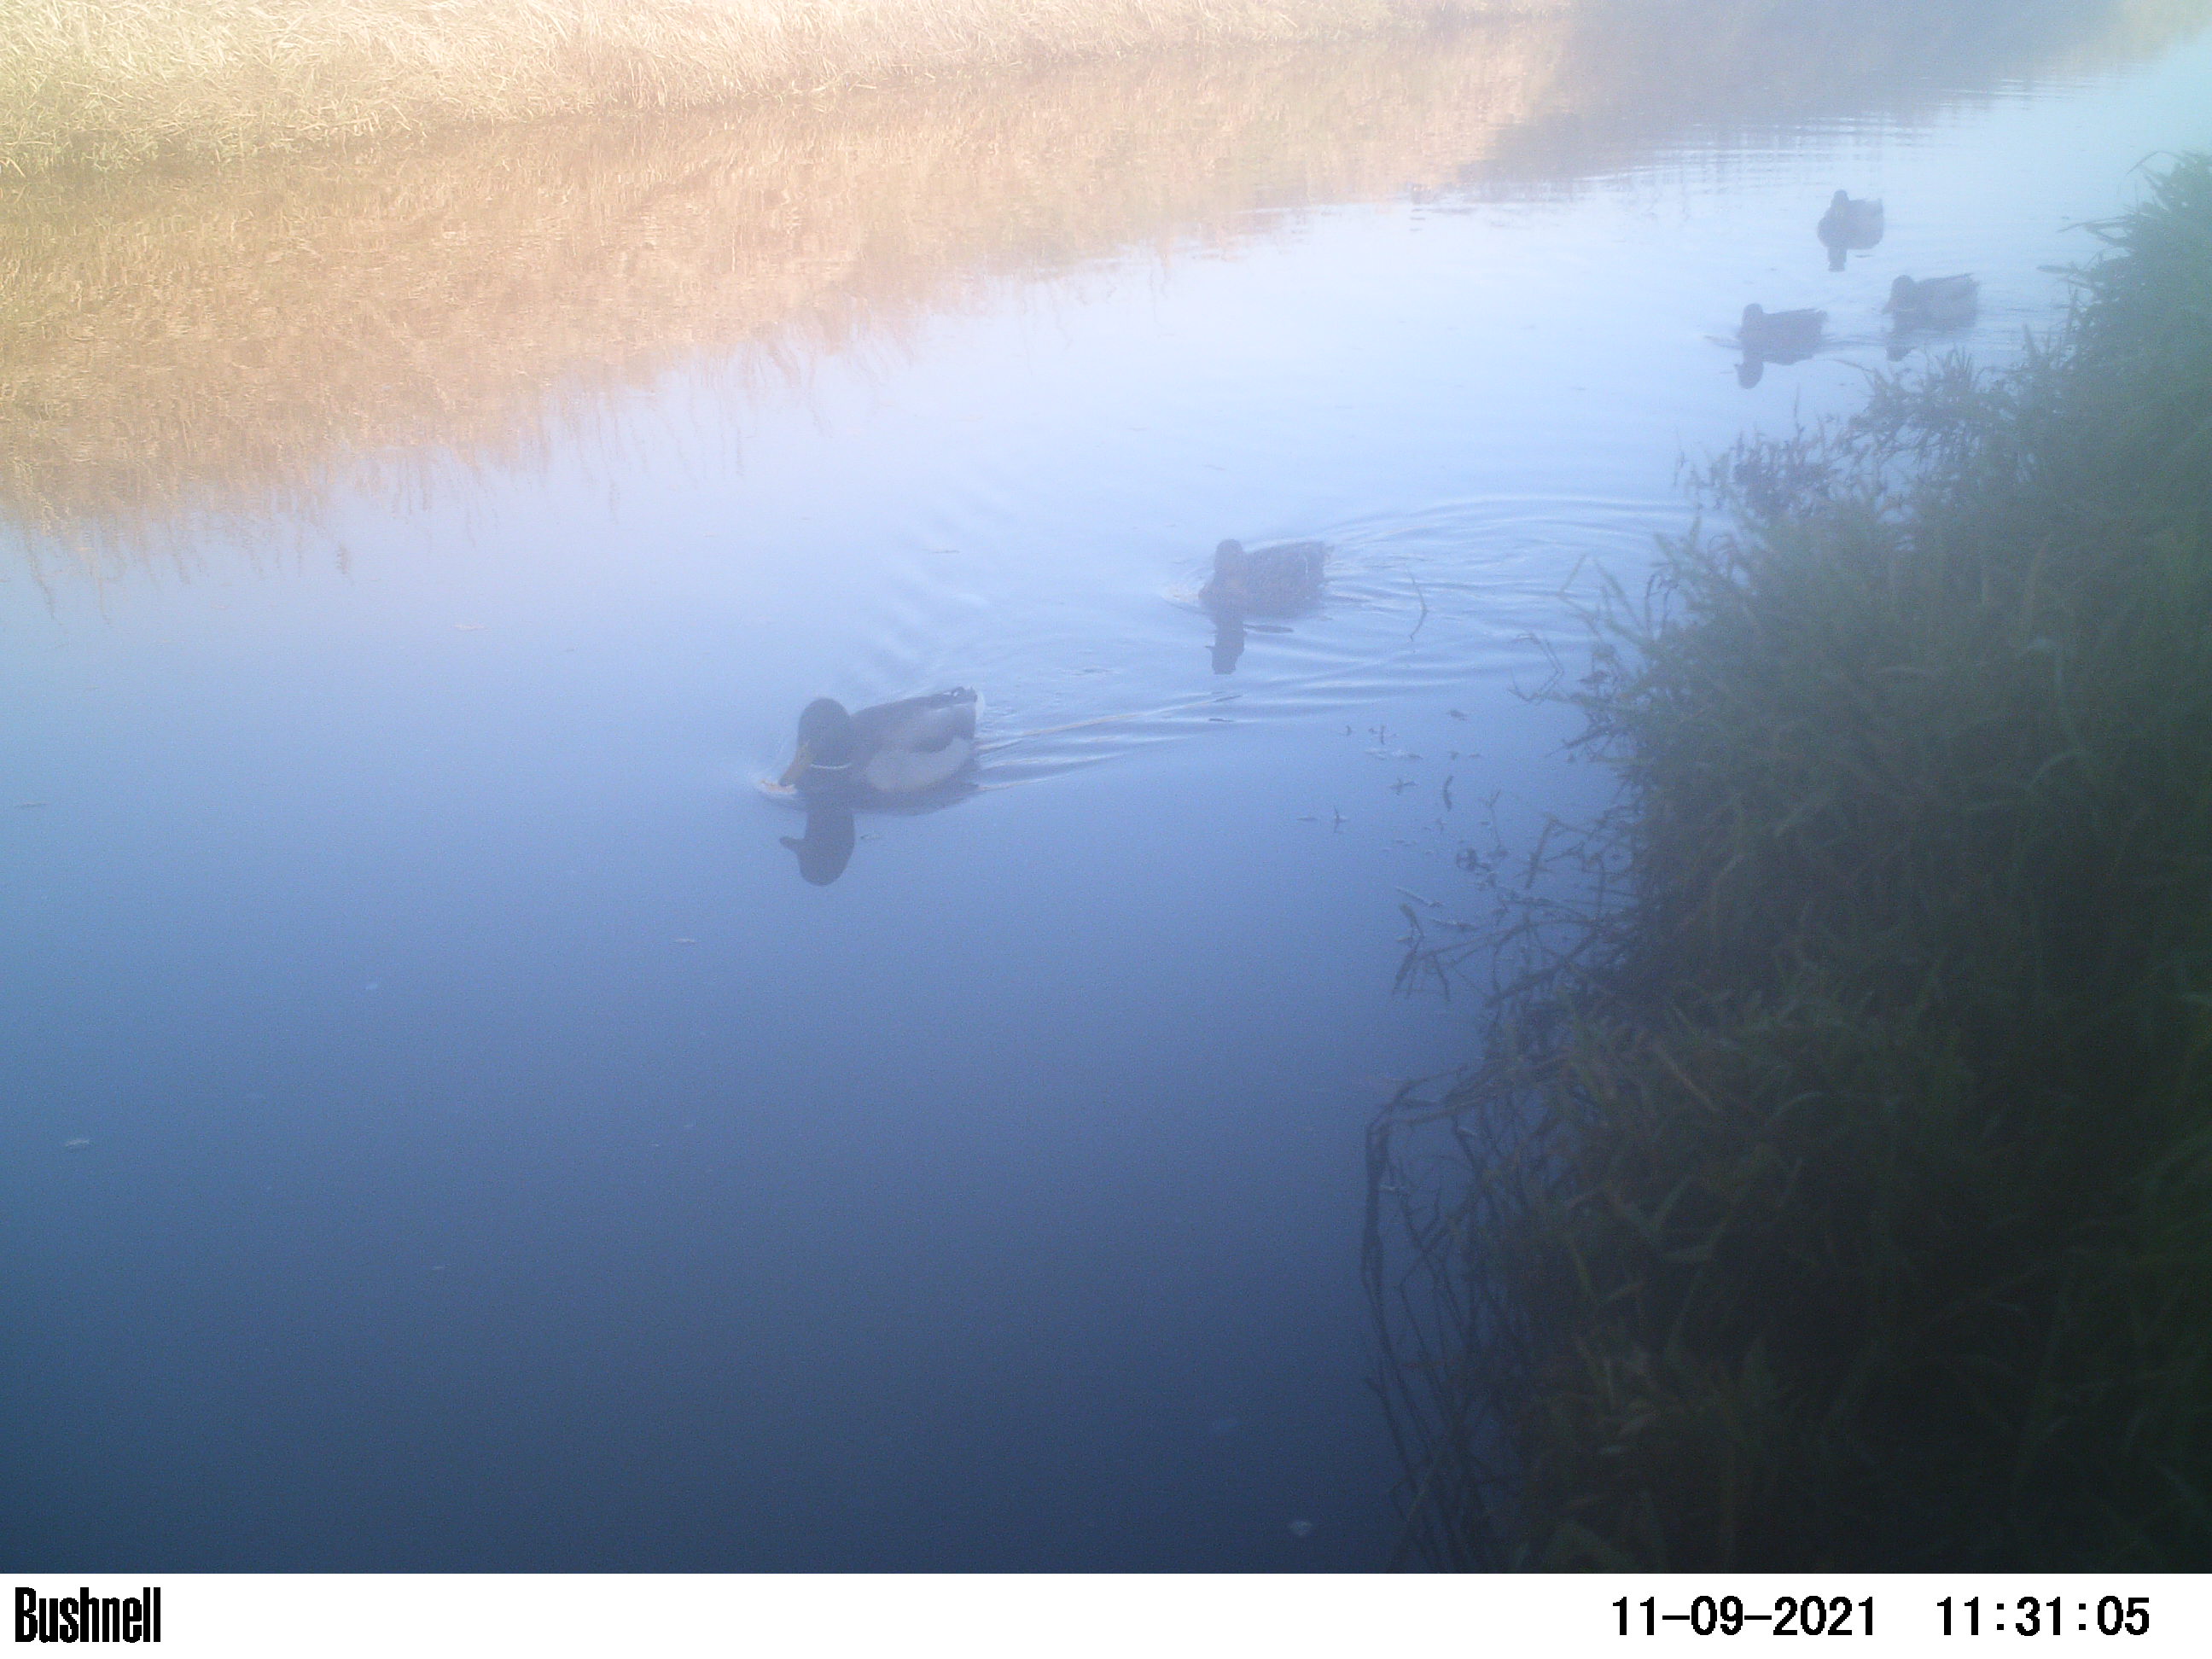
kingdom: Animalia
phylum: Chordata
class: Aves
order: Anseriformes
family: Anatidae
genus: Anas
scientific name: Anas
